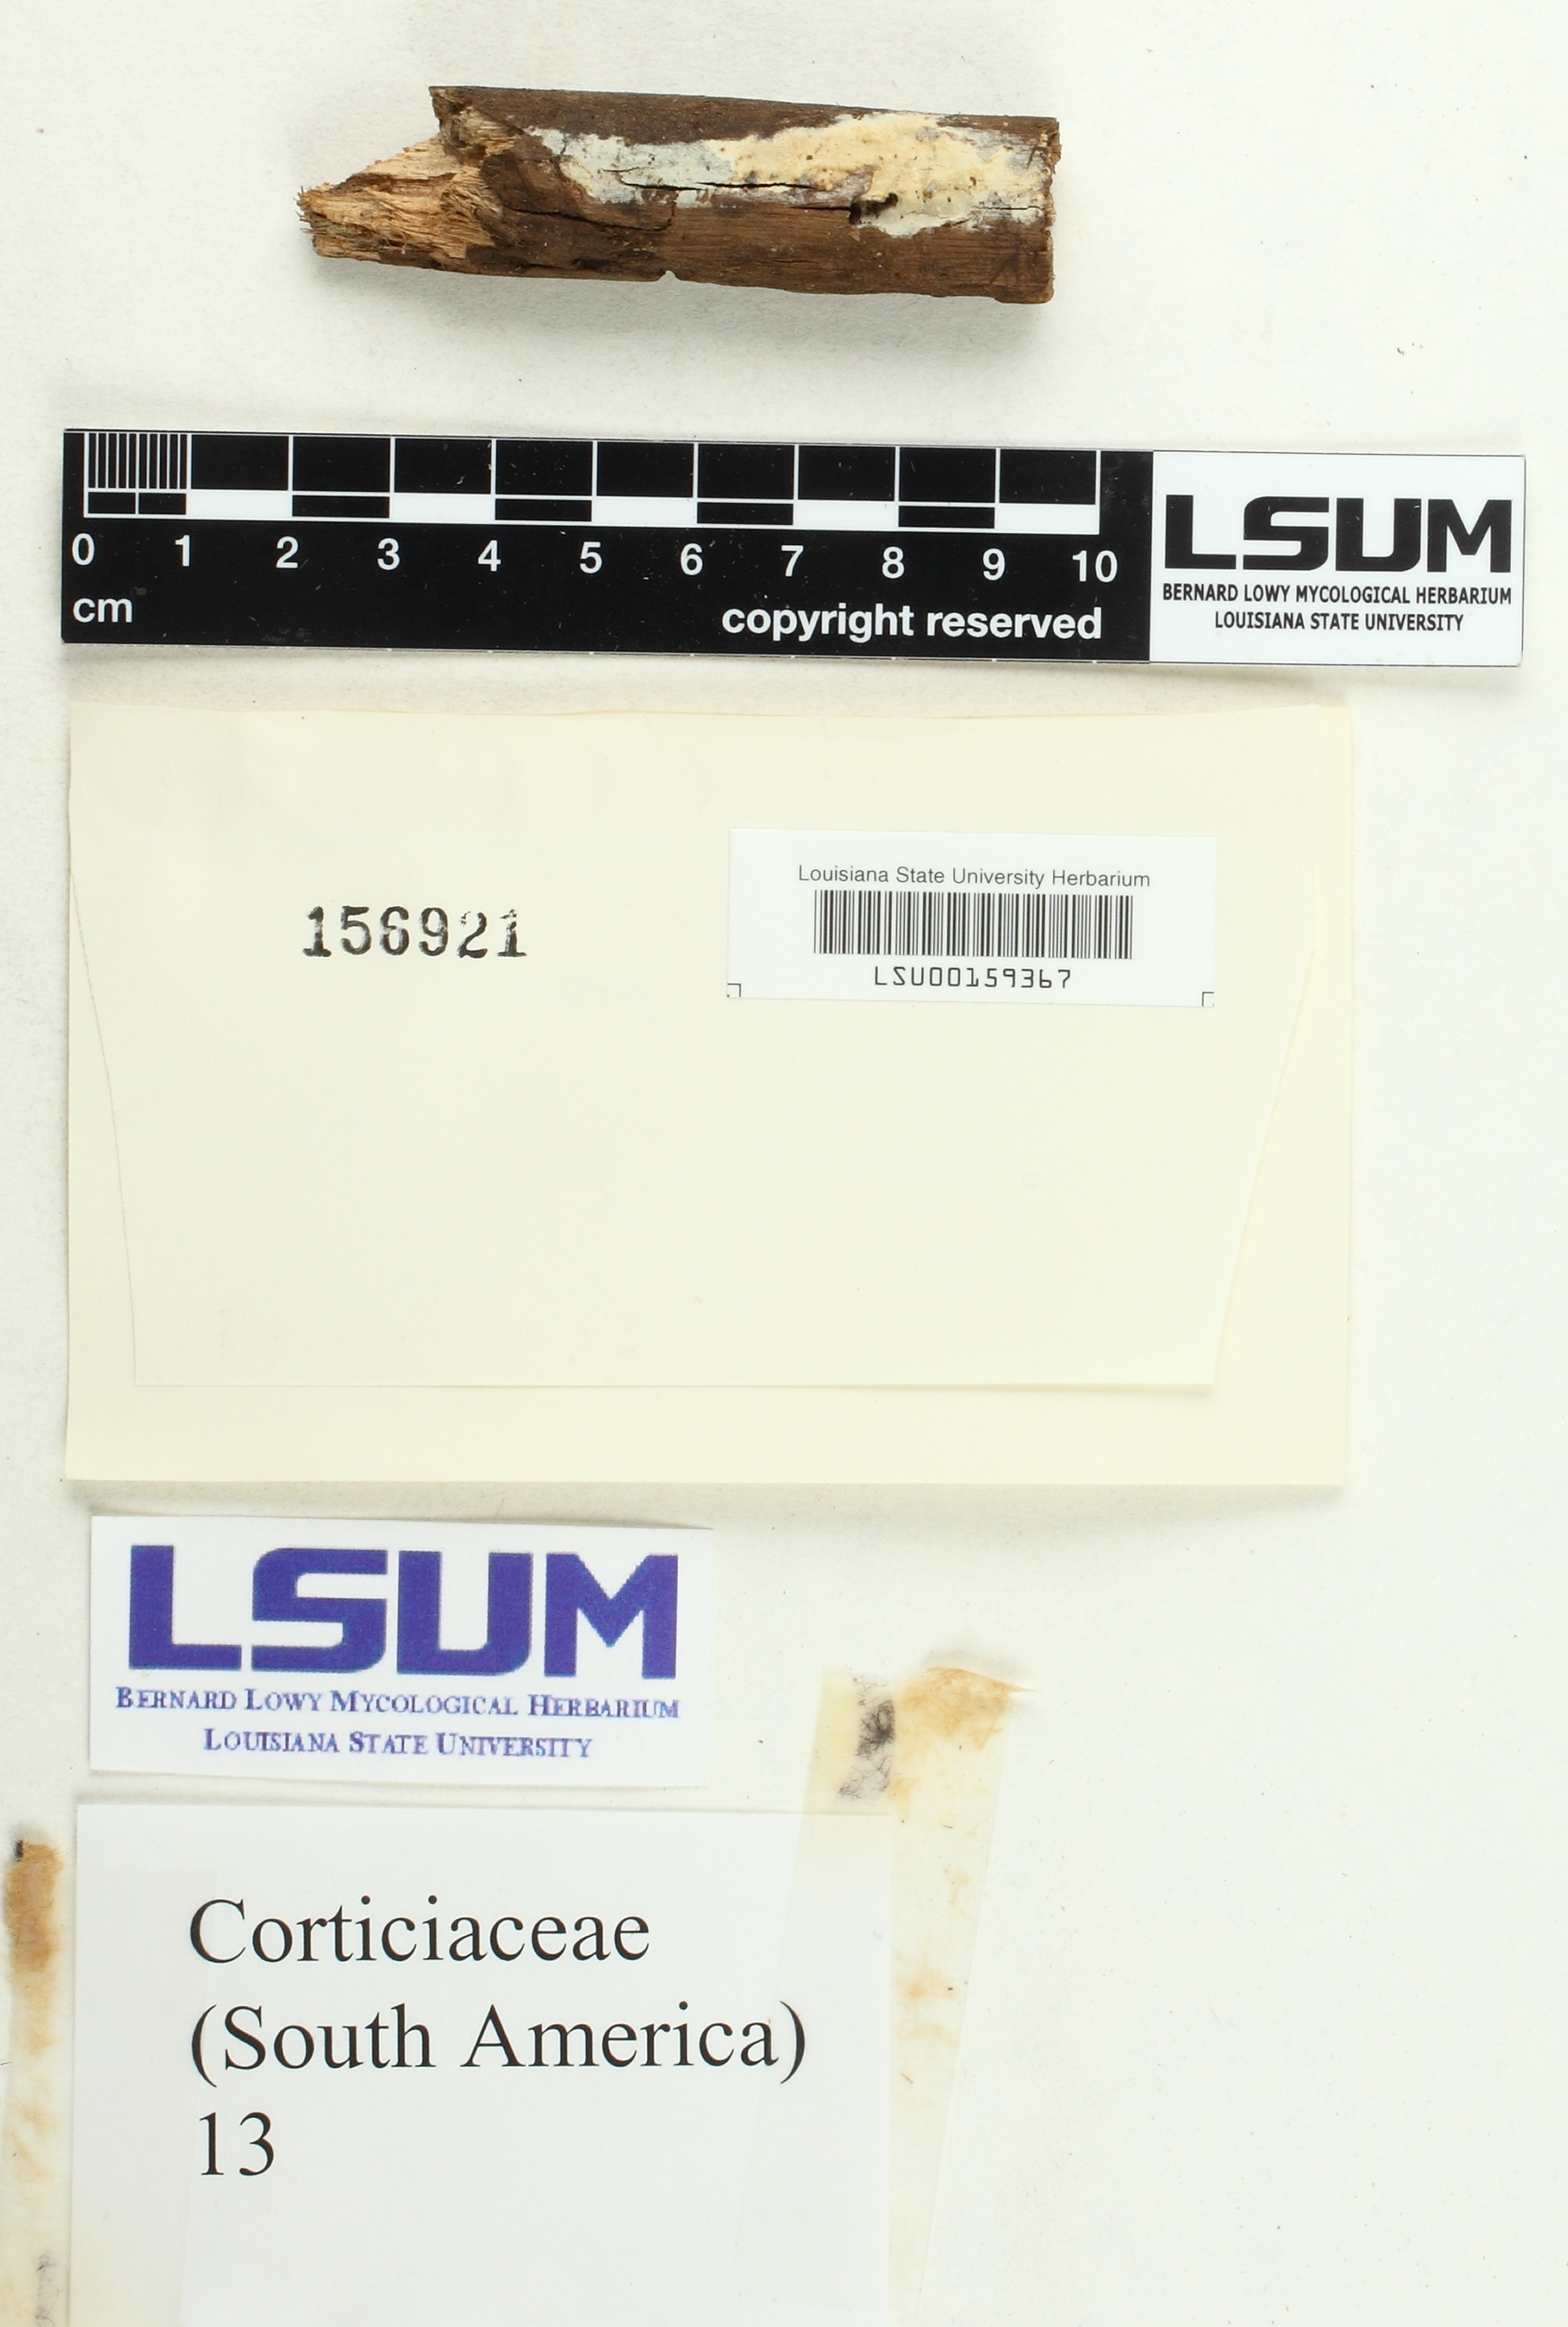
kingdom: Fungi
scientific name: Fungi
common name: Fungi
